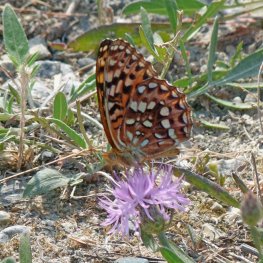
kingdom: Animalia
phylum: Arthropoda
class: Insecta
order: Lepidoptera
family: Nymphalidae
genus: Speyeria
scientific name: Speyeria hydaspe
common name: Hydaspe Fritillary
